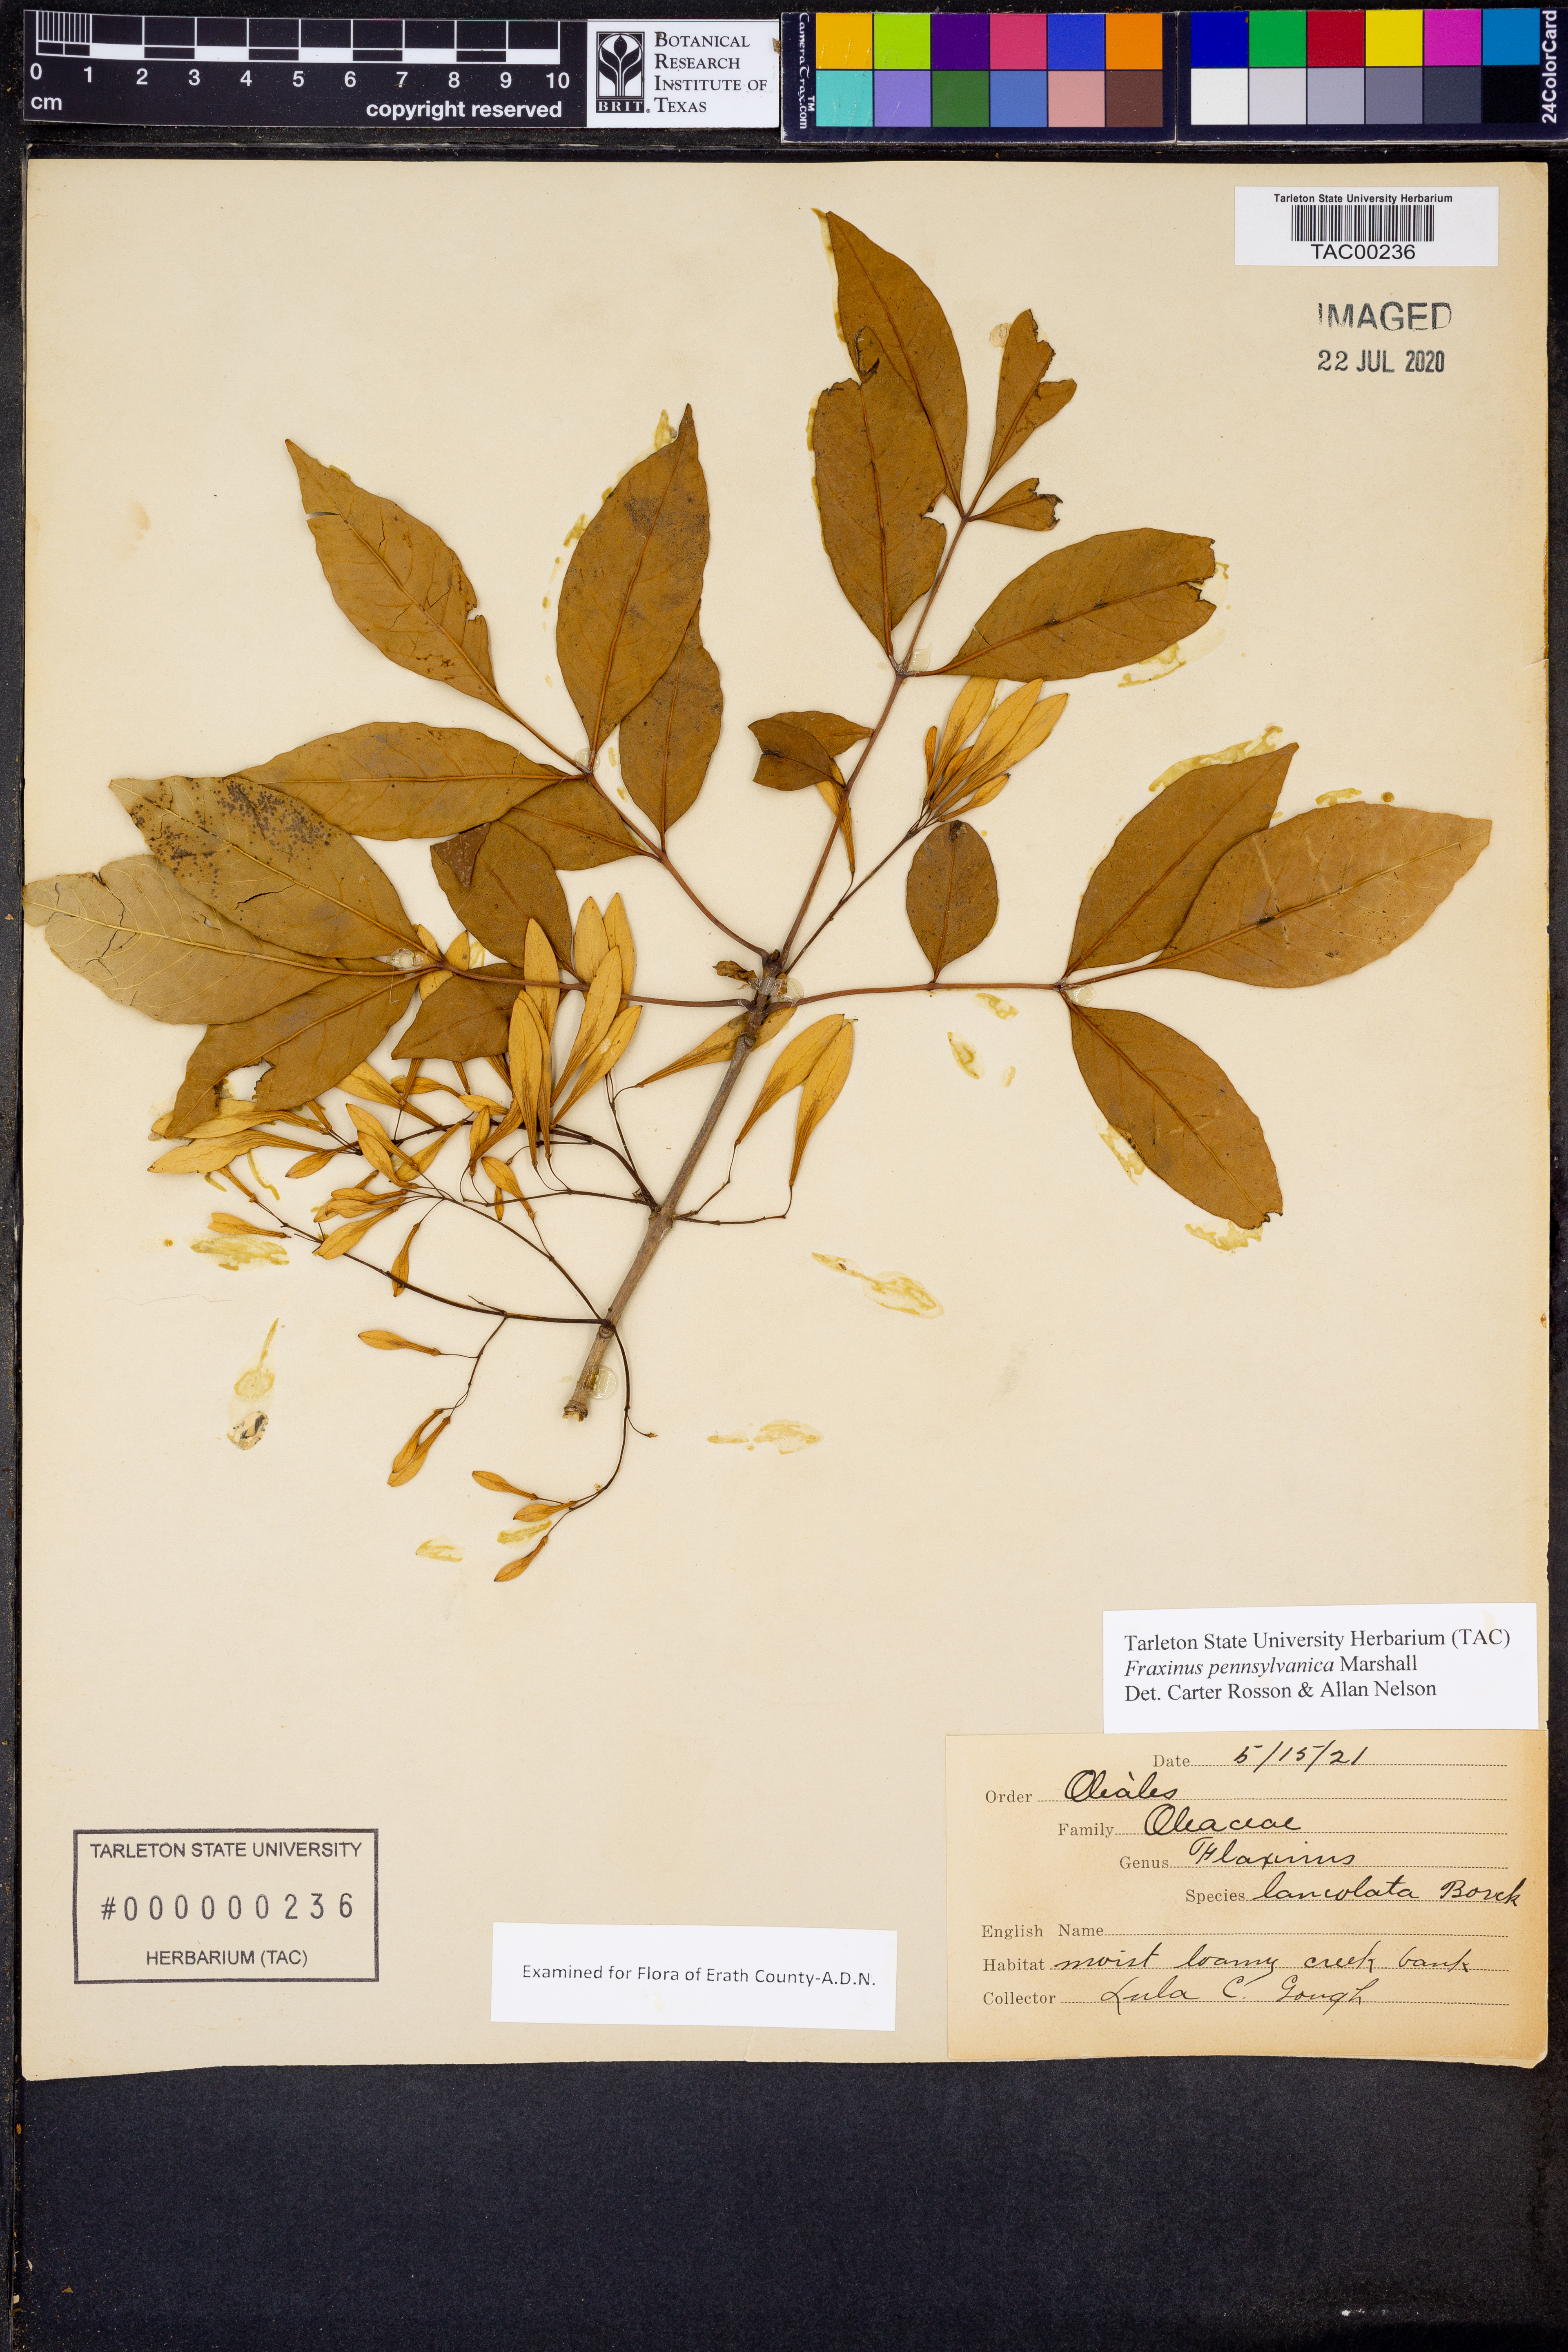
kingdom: Plantae
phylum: Tracheophyta
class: Magnoliopsida
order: Lamiales
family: Oleaceae
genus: Fraxinus
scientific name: Fraxinus pennsylvanica
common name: Green ash
